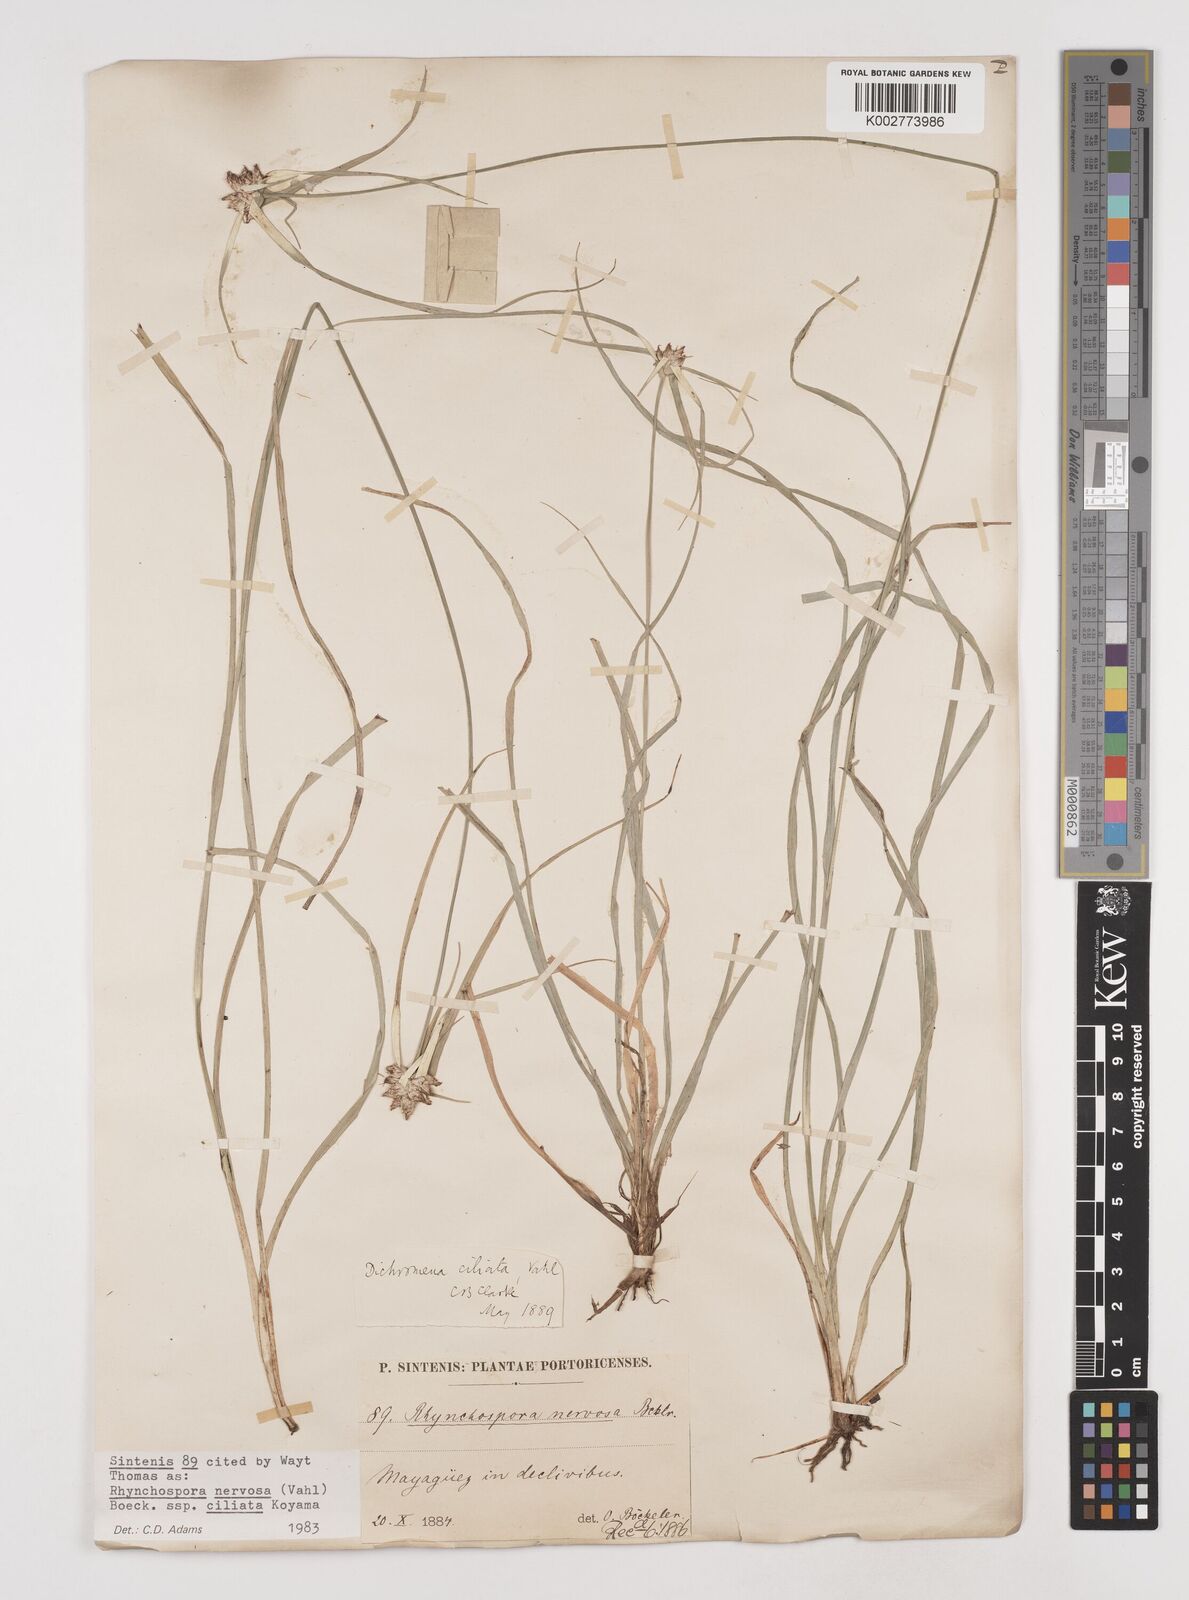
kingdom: Plantae
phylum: Tracheophyta
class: Liliopsida
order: Poales
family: Cyperaceae
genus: Rhynchospora
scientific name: Rhynchospora pura
